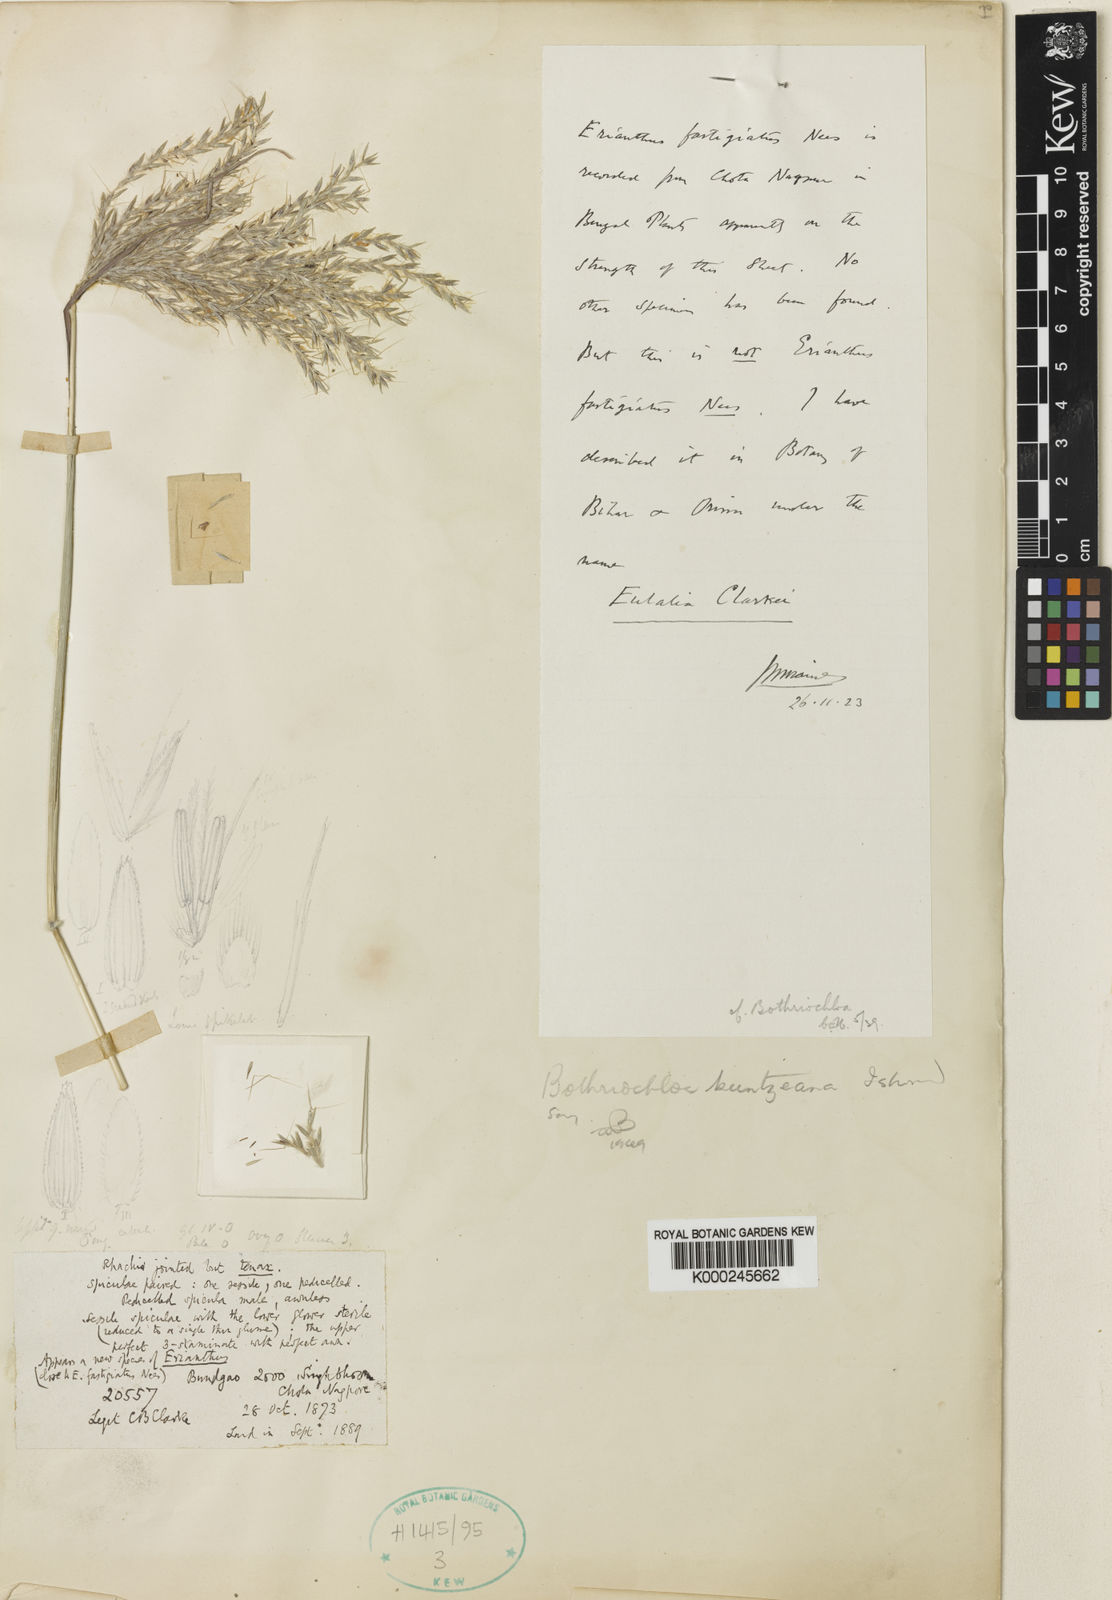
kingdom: Plantae
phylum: Tracheophyta
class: Liliopsida
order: Poales
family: Poaceae
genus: Bothriochloa
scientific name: Bothriochloa kuntzeana
